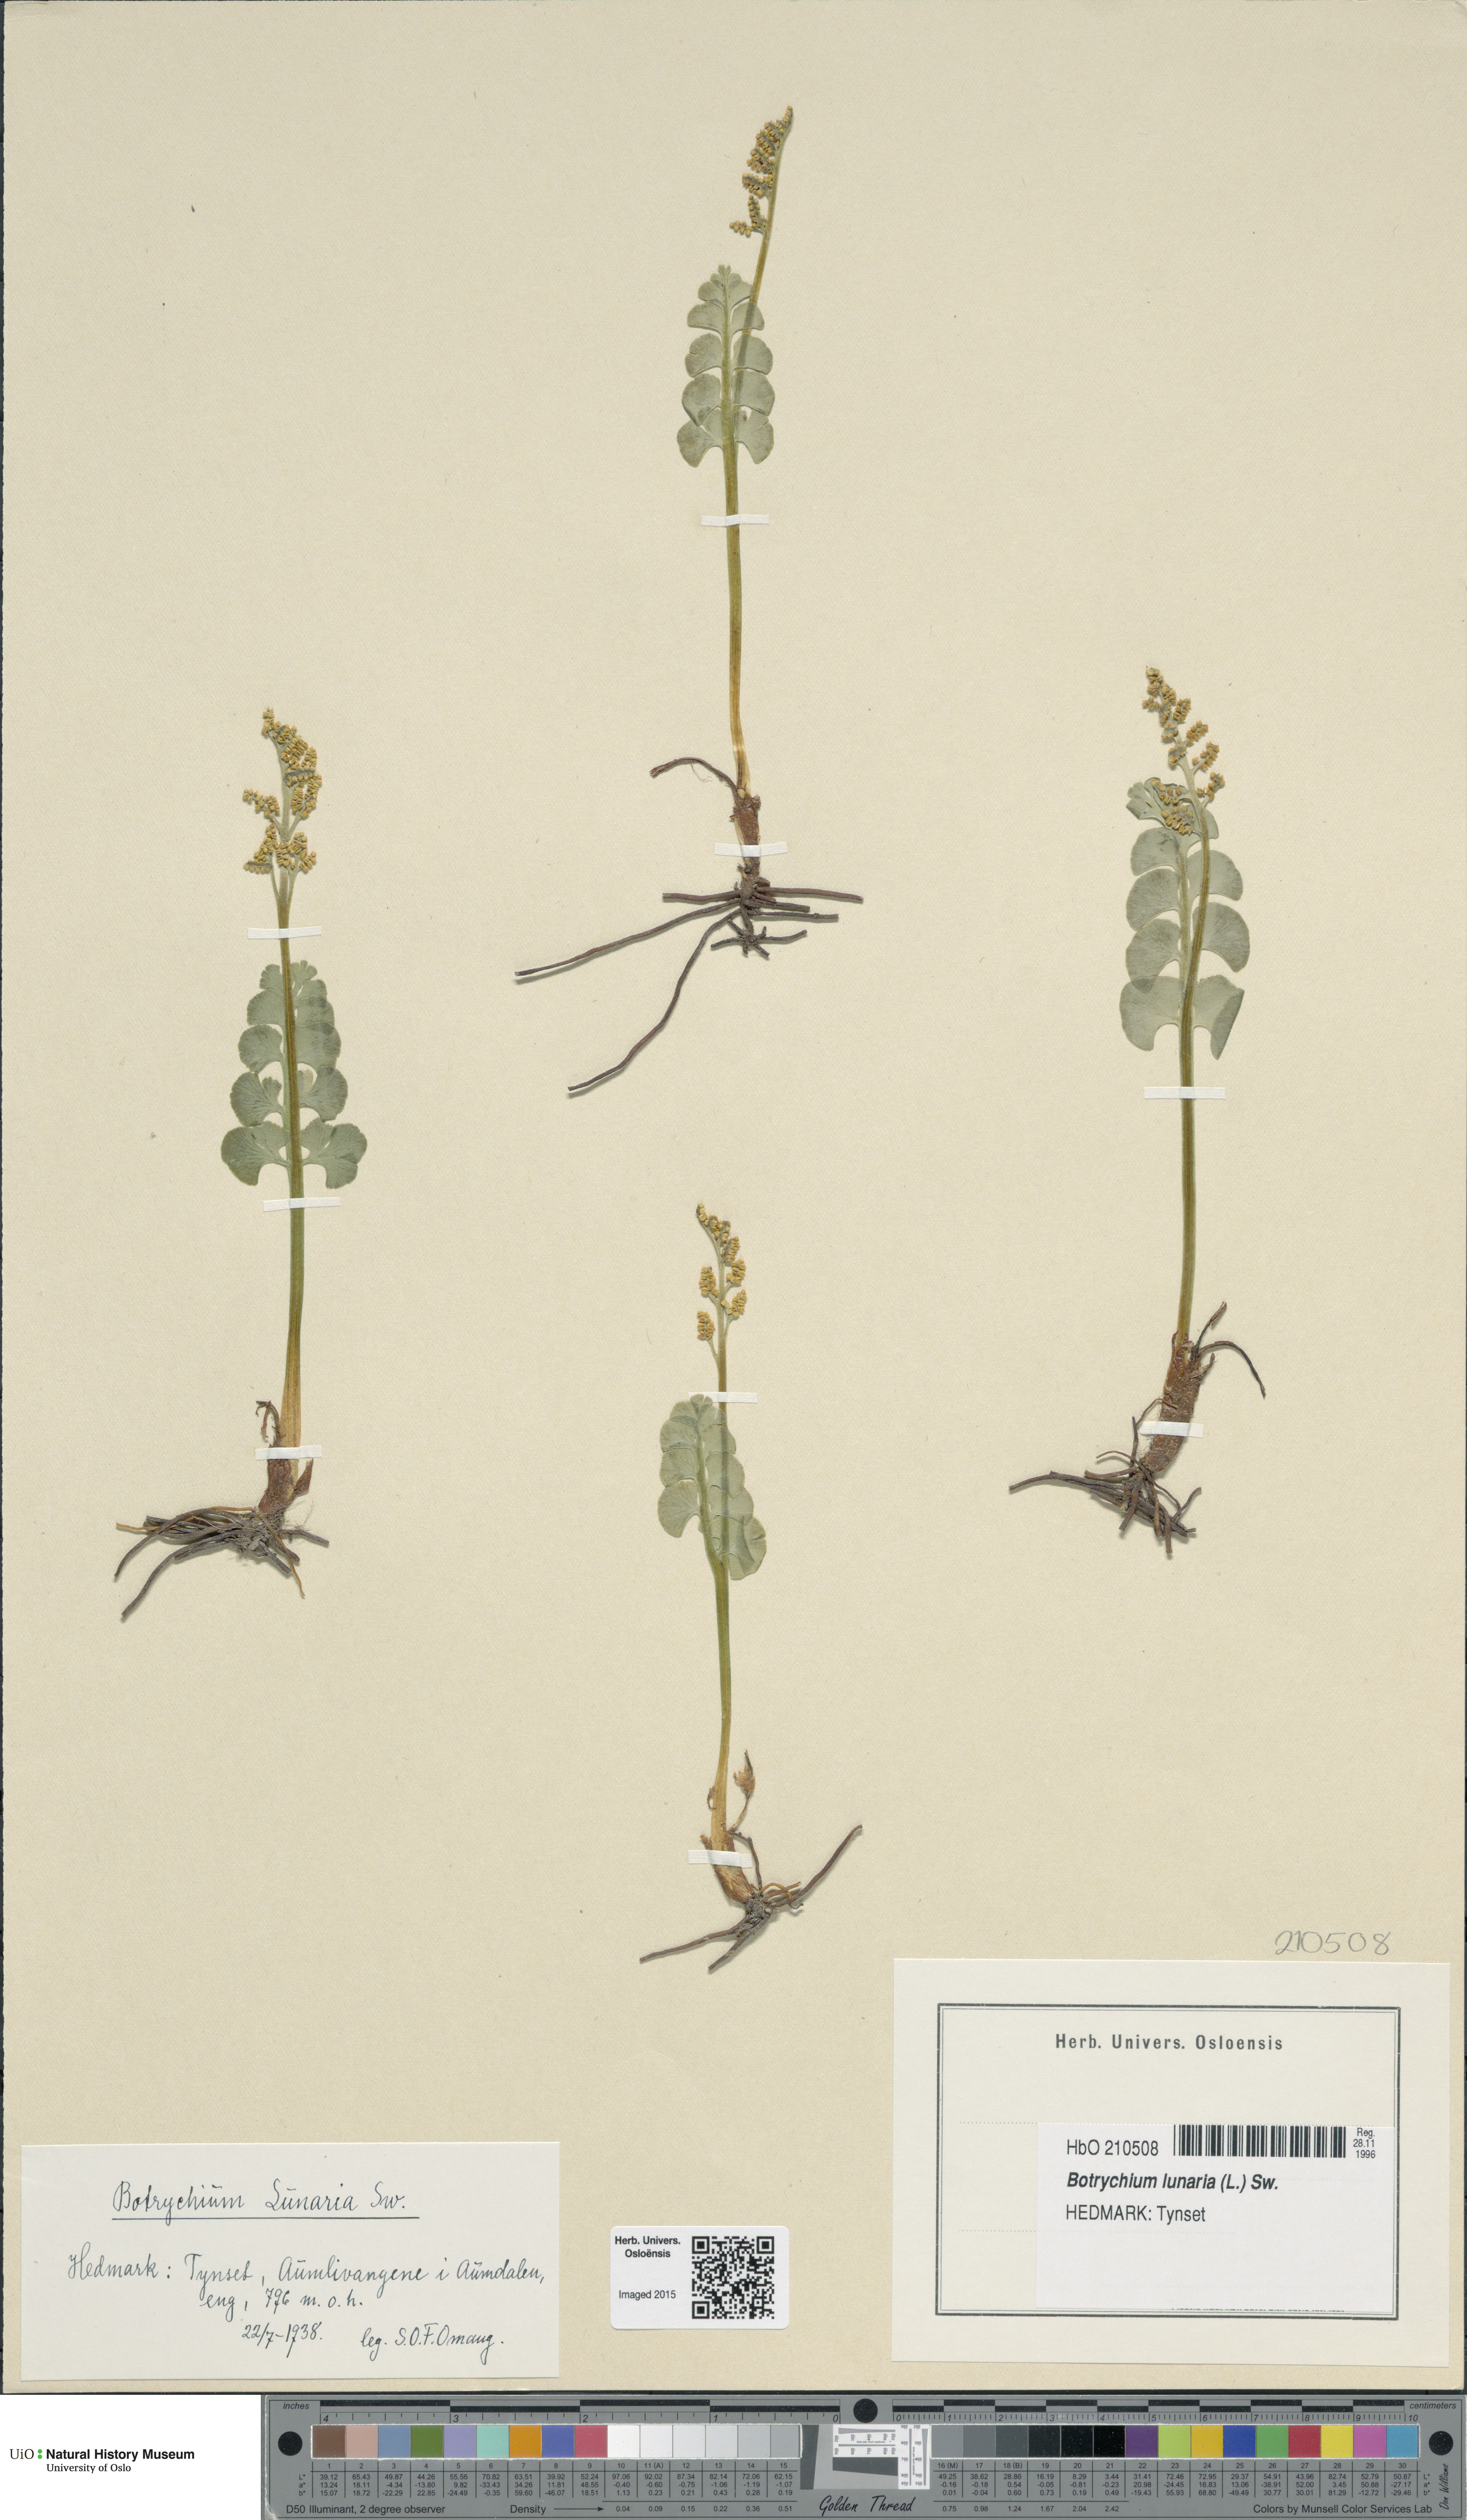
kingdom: Plantae
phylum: Tracheophyta
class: Polypodiopsida
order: Ophioglossales
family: Ophioglossaceae
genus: Botrychium
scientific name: Botrychium lunaria
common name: Moonwort
